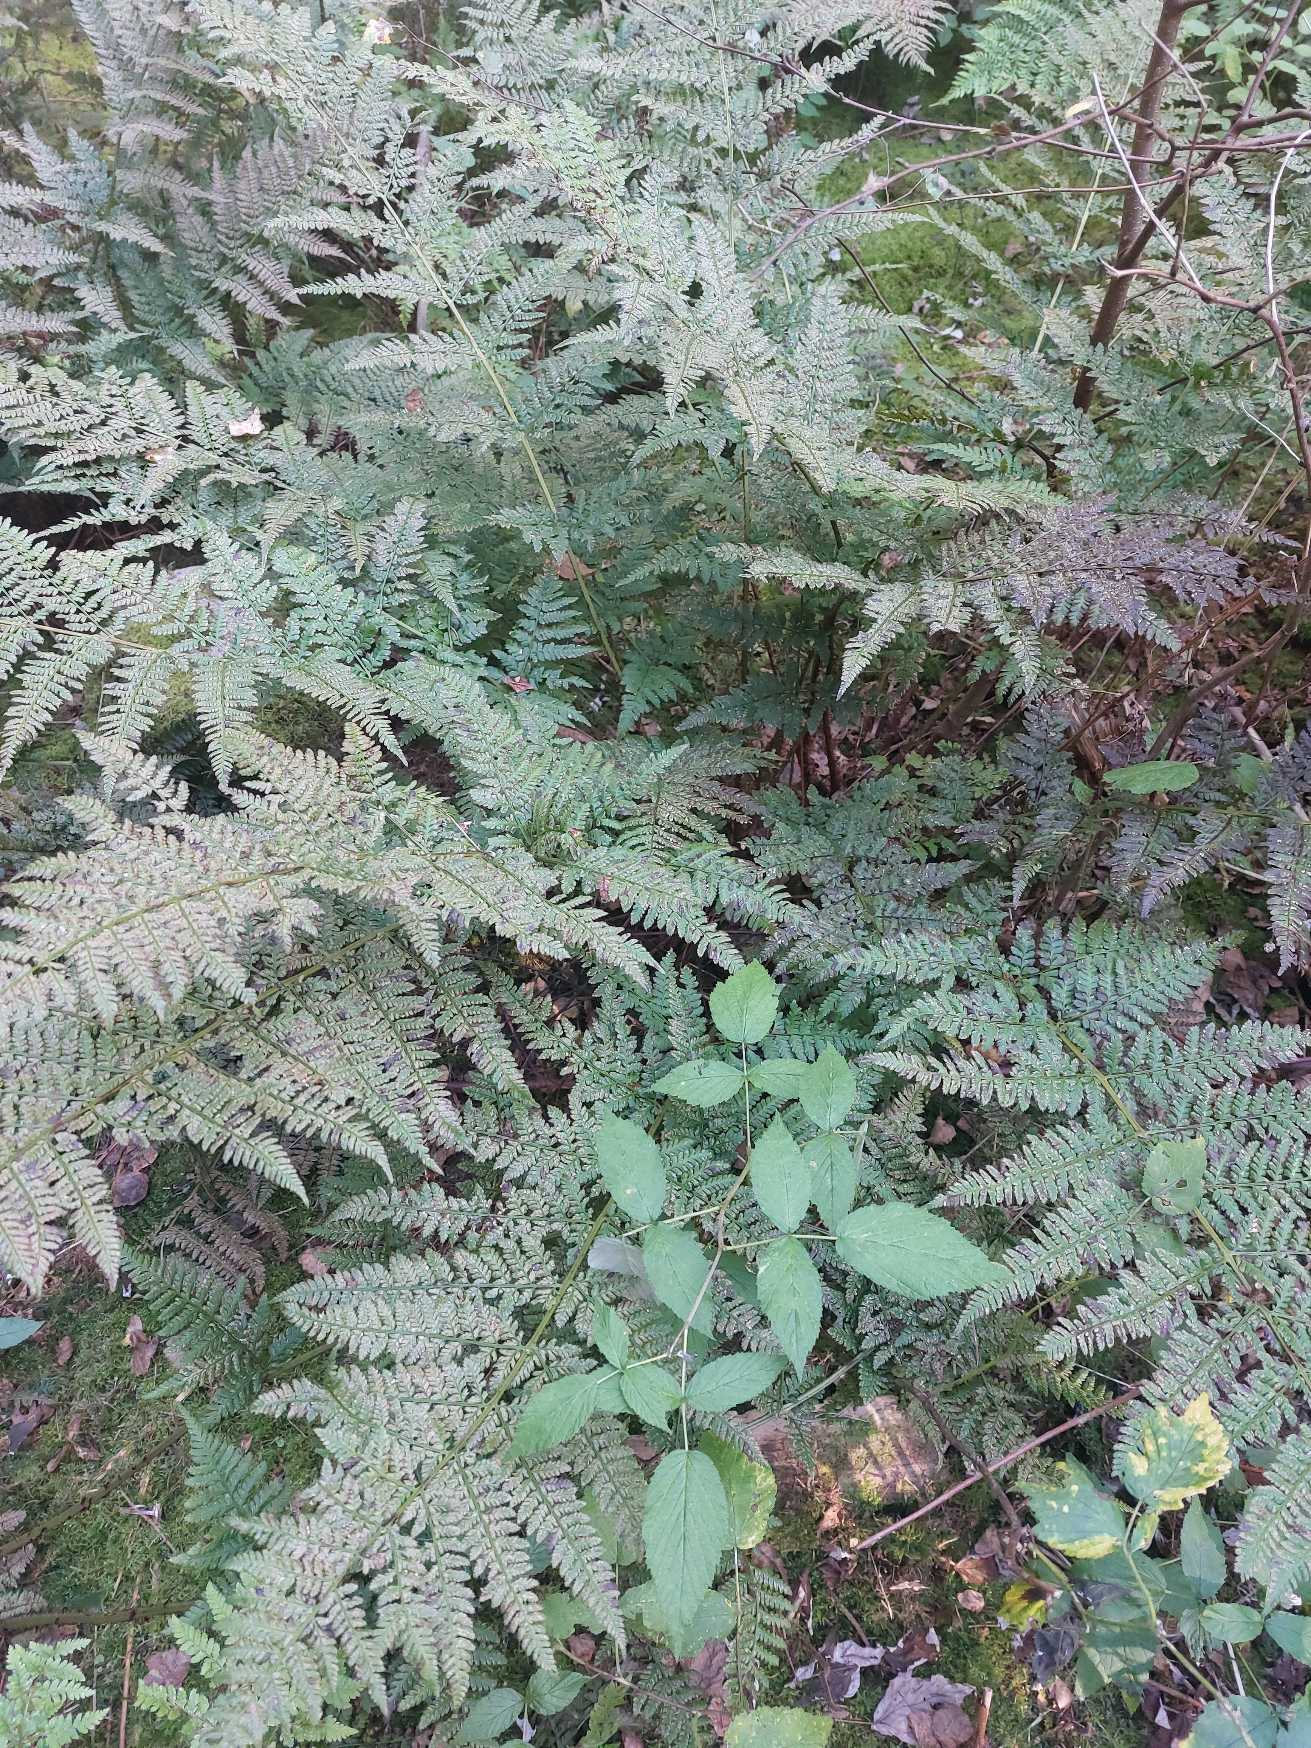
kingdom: Plantae
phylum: Tracheophyta
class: Polypodiopsida
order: Polypodiales
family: Dryopteridaceae
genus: Dryopteris
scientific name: Dryopteris dilatata
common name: Bredbladet mangeløv
